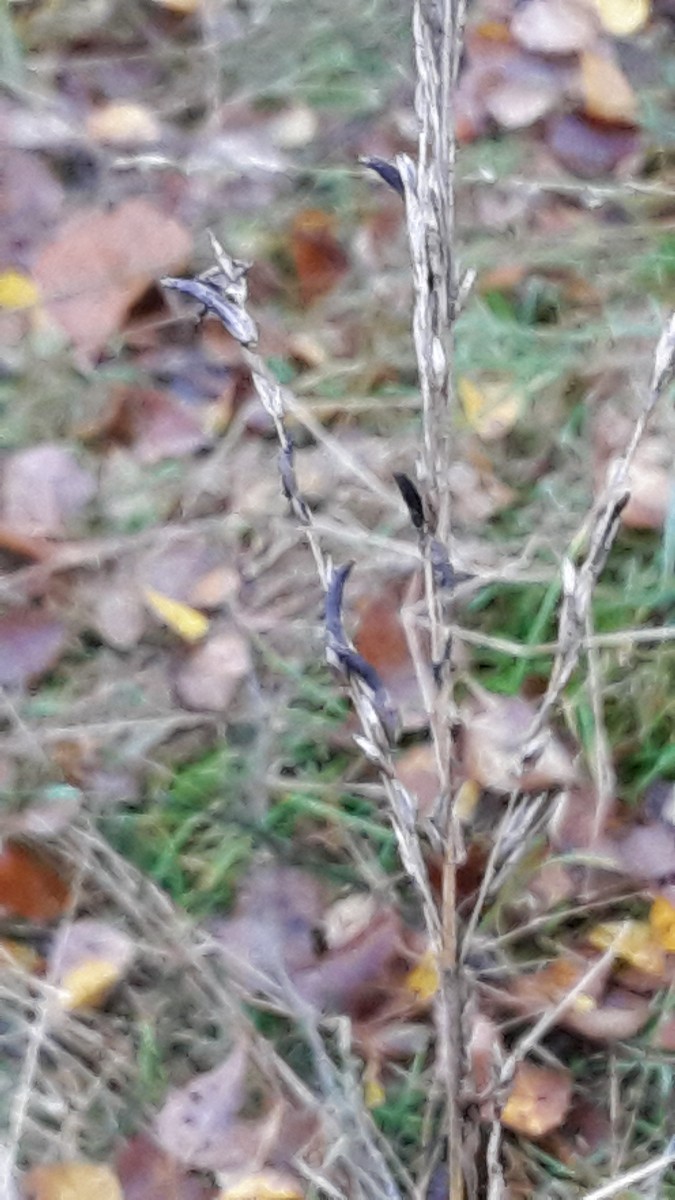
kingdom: Fungi
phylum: Ascomycota
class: Sordariomycetes
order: Hypocreales
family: Clavicipitaceae
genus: Claviceps
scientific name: Claviceps purpurea
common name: almindelig meldrøjer
